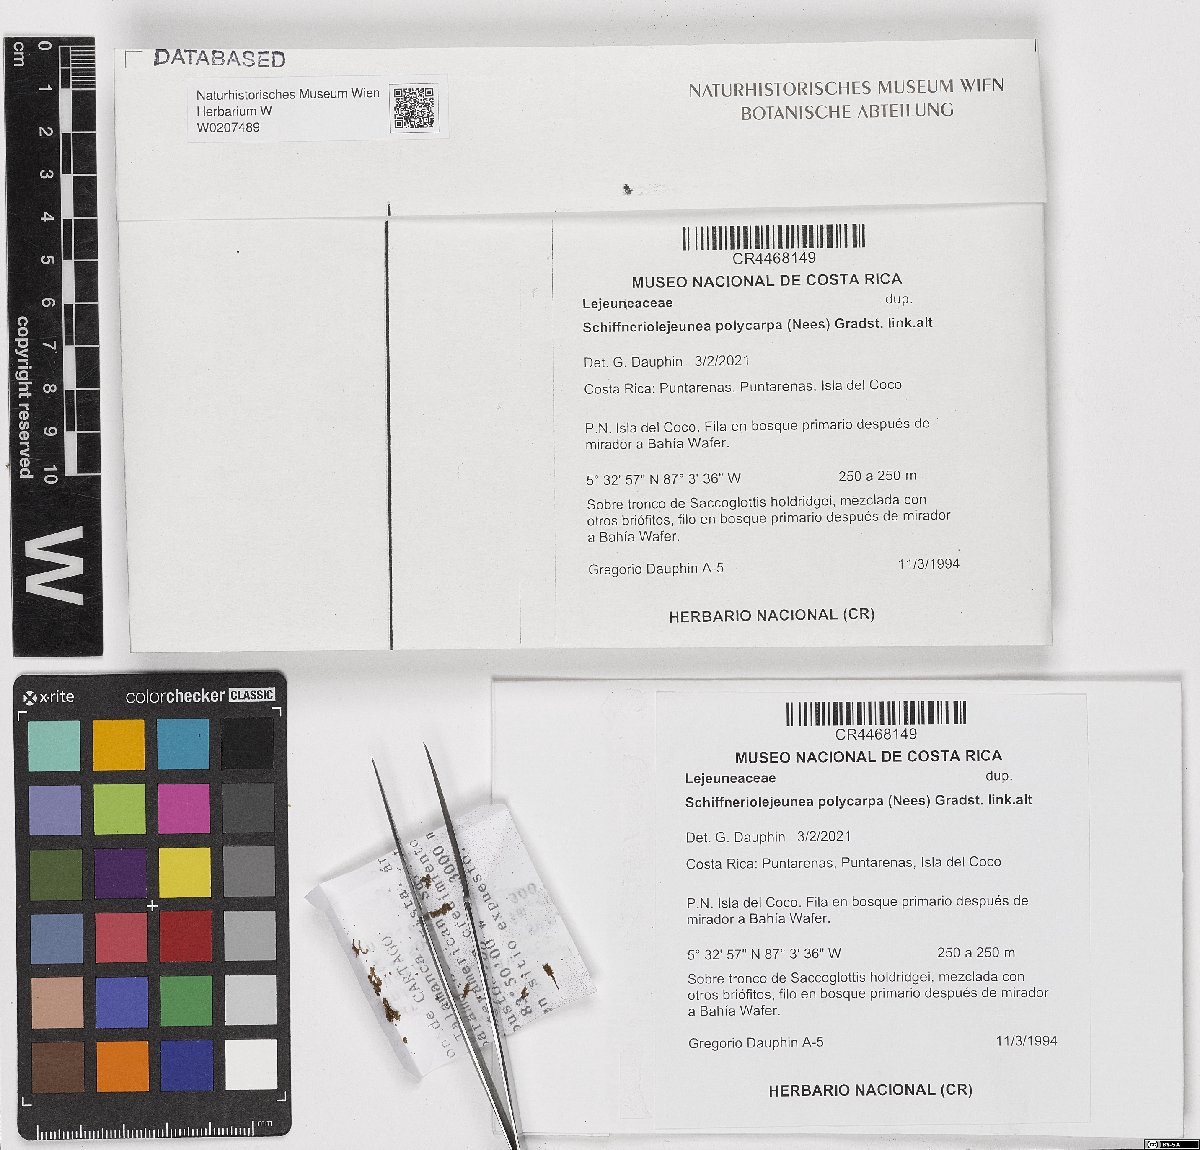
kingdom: Plantae
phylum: Marchantiophyta
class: Jungermanniopsida
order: Porellales
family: Lejeuneaceae
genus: Schiffneriolejeunea
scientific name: Schiffneriolejeunea polycarpa
